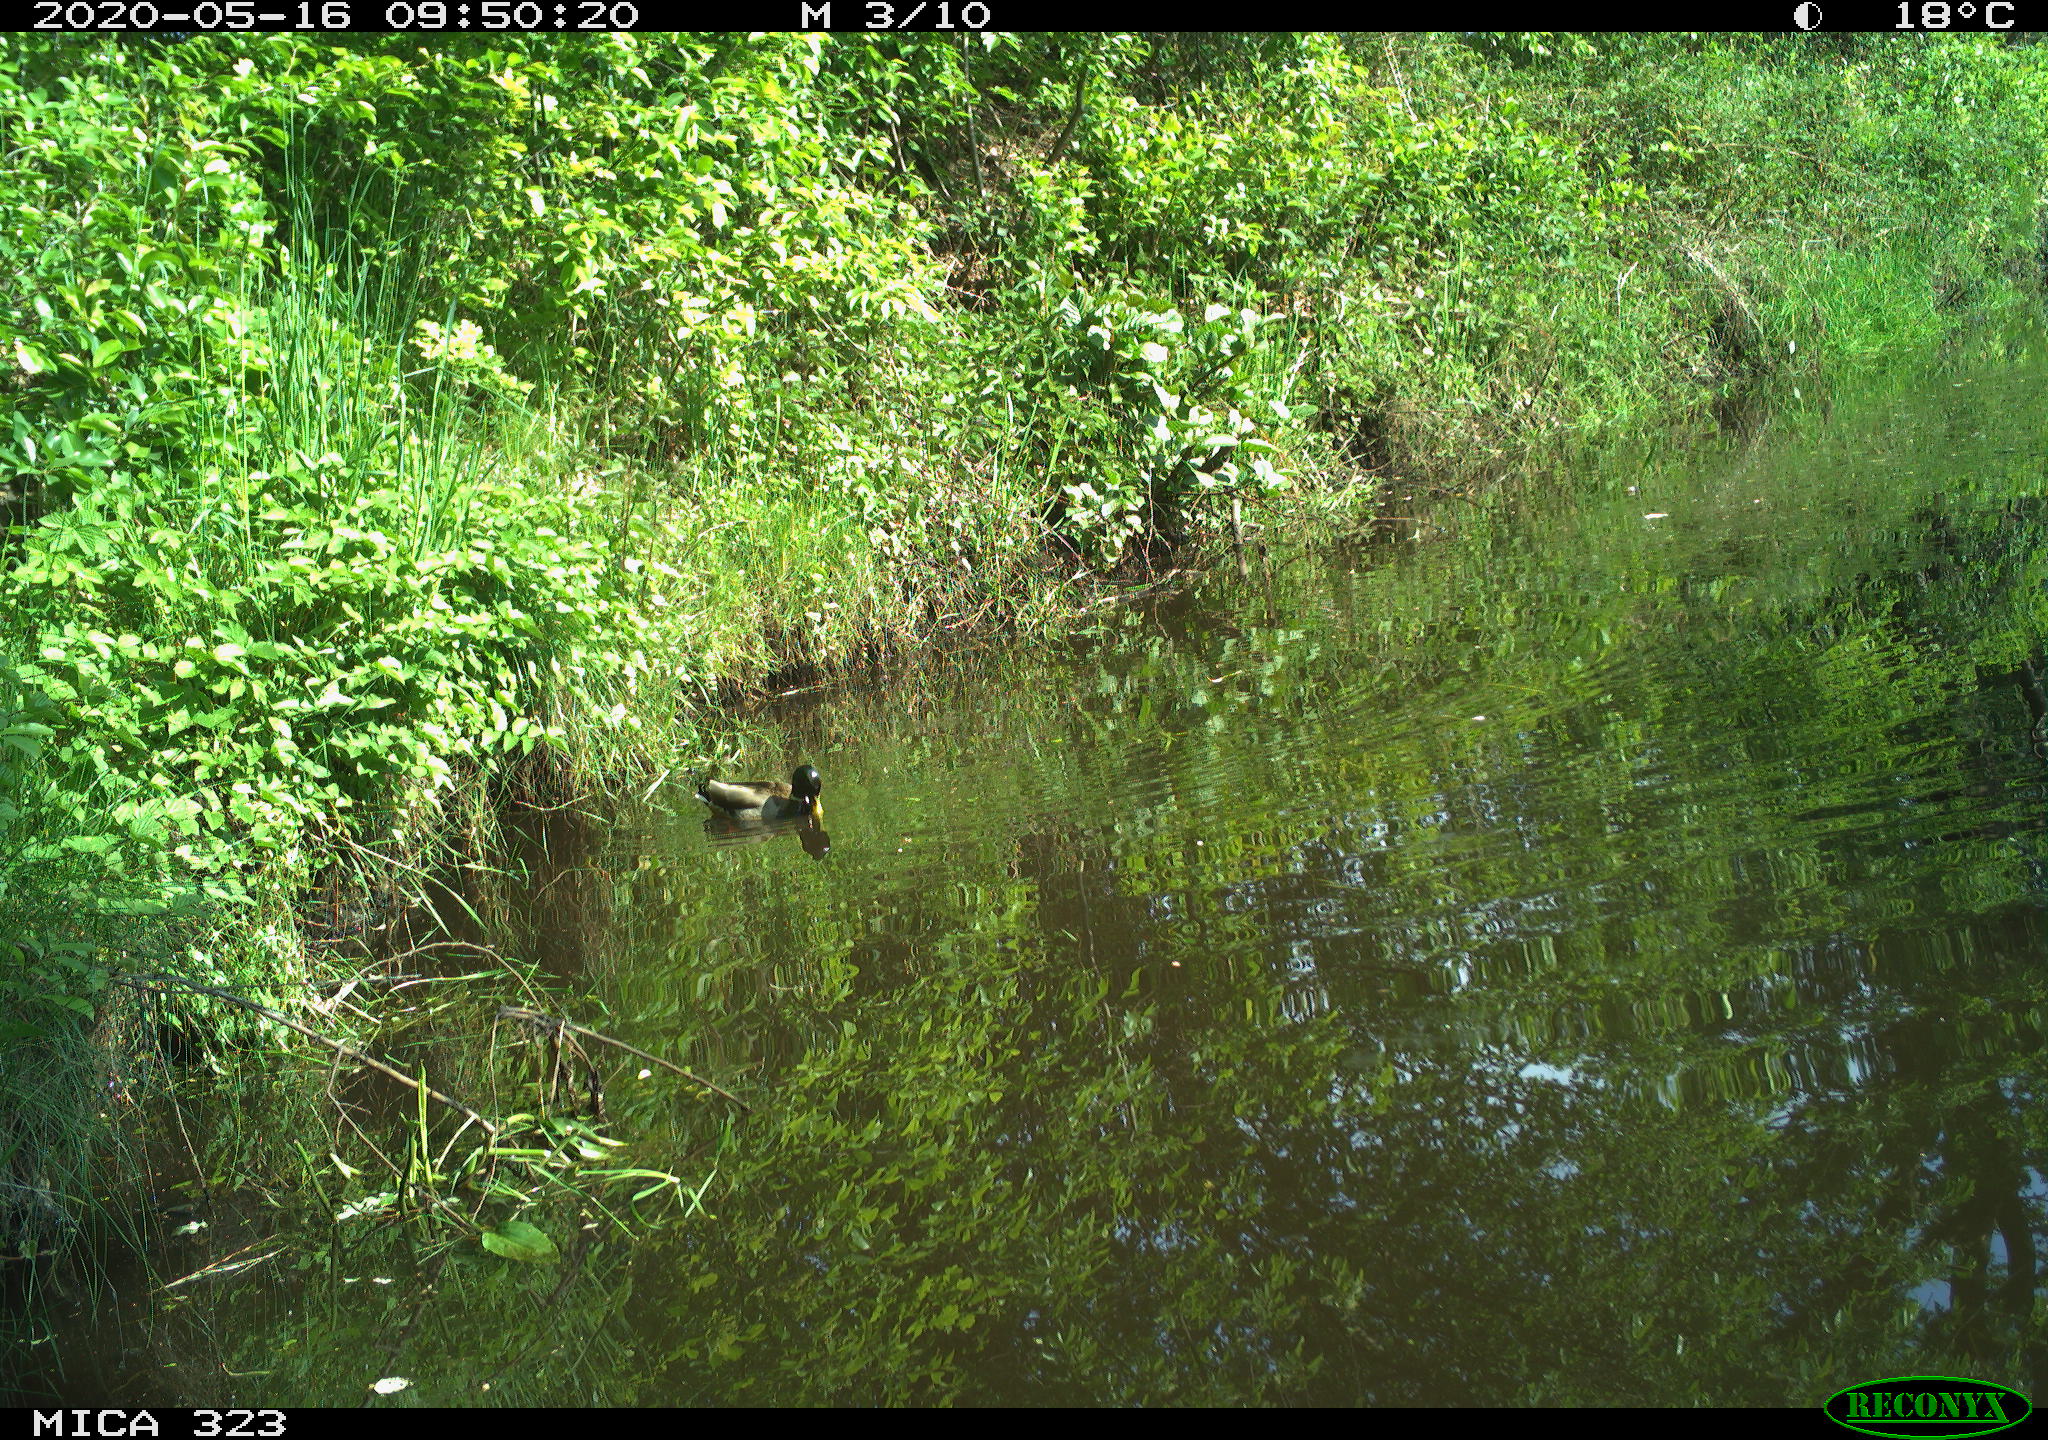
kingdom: Animalia
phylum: Chordata
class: Aves
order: Anseriformes
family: Anatidae
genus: Anas
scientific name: Anas platyrhynchos
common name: Mallard
